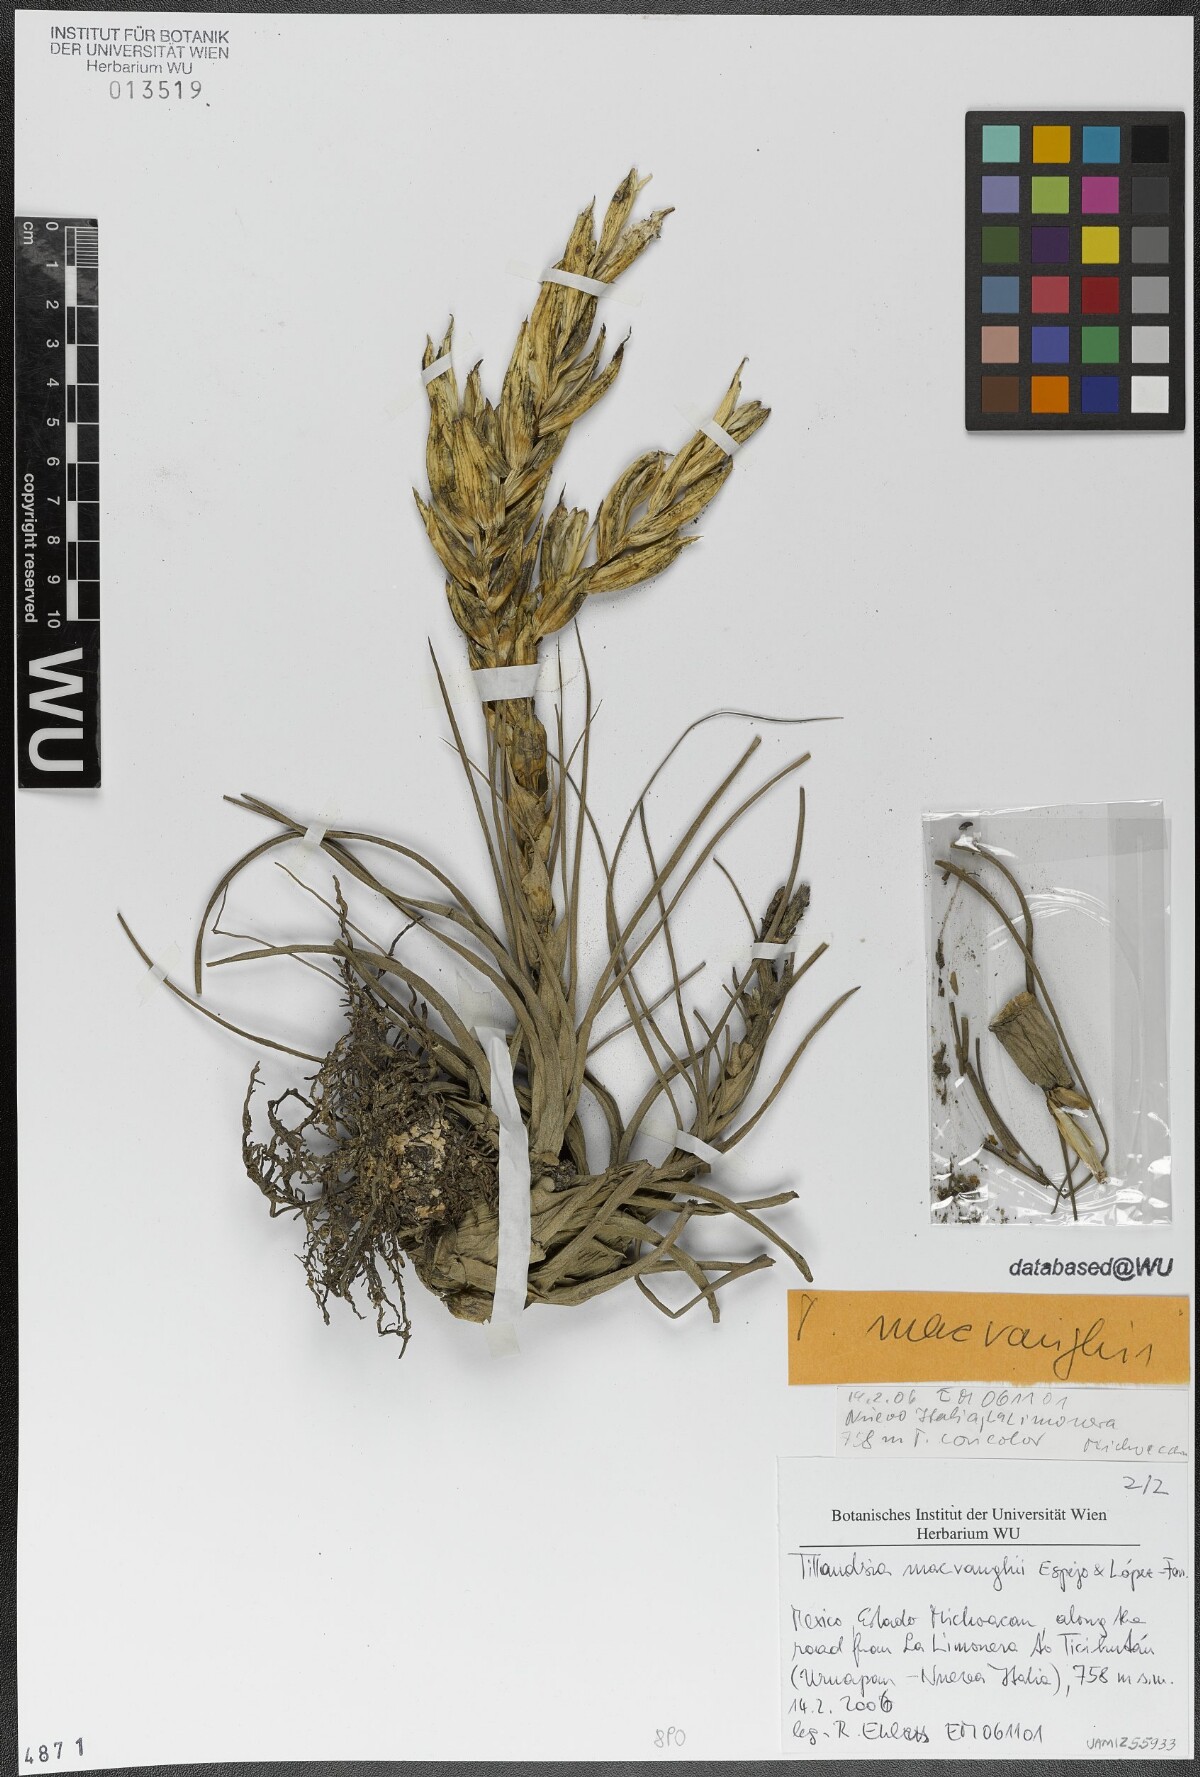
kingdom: Plantae
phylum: Tracheophyta
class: Liliopsida
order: Poales
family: Bromeliaceae
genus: Tillandsia
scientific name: Tillandsia macvaughii
